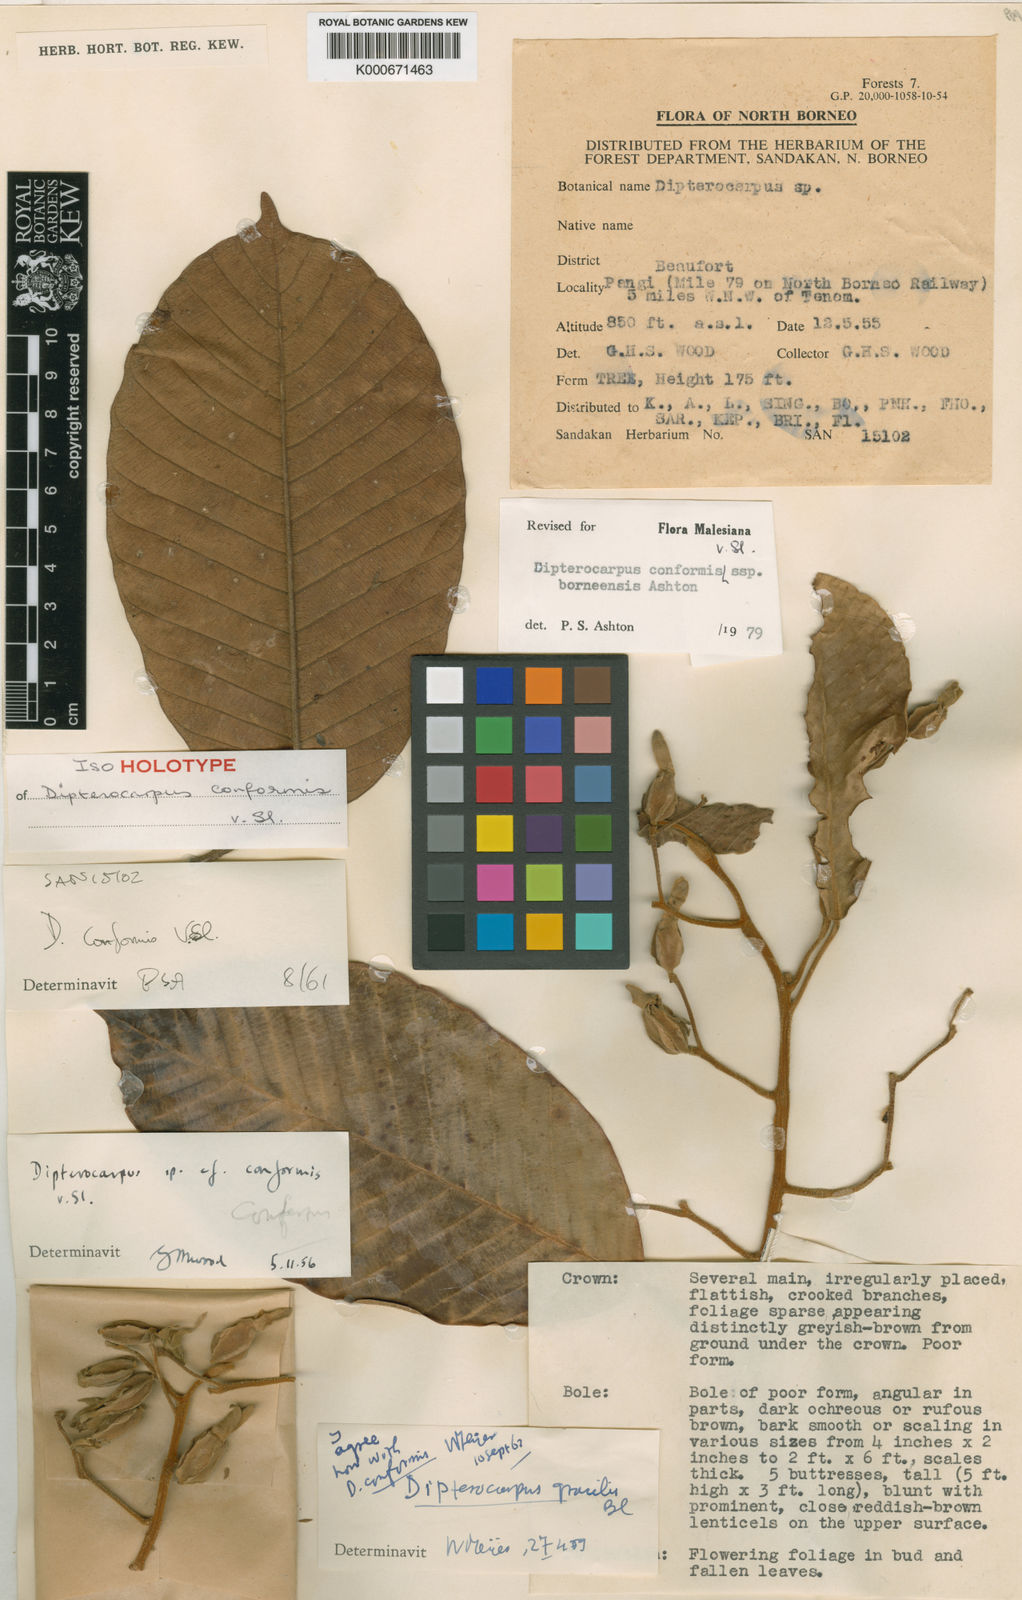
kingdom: Plantae
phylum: Tracheophyta
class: Magnoliopsida
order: Malvales
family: Dipterocarpaceae
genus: Dipterocarpus
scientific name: Dipterocarpus conformis
